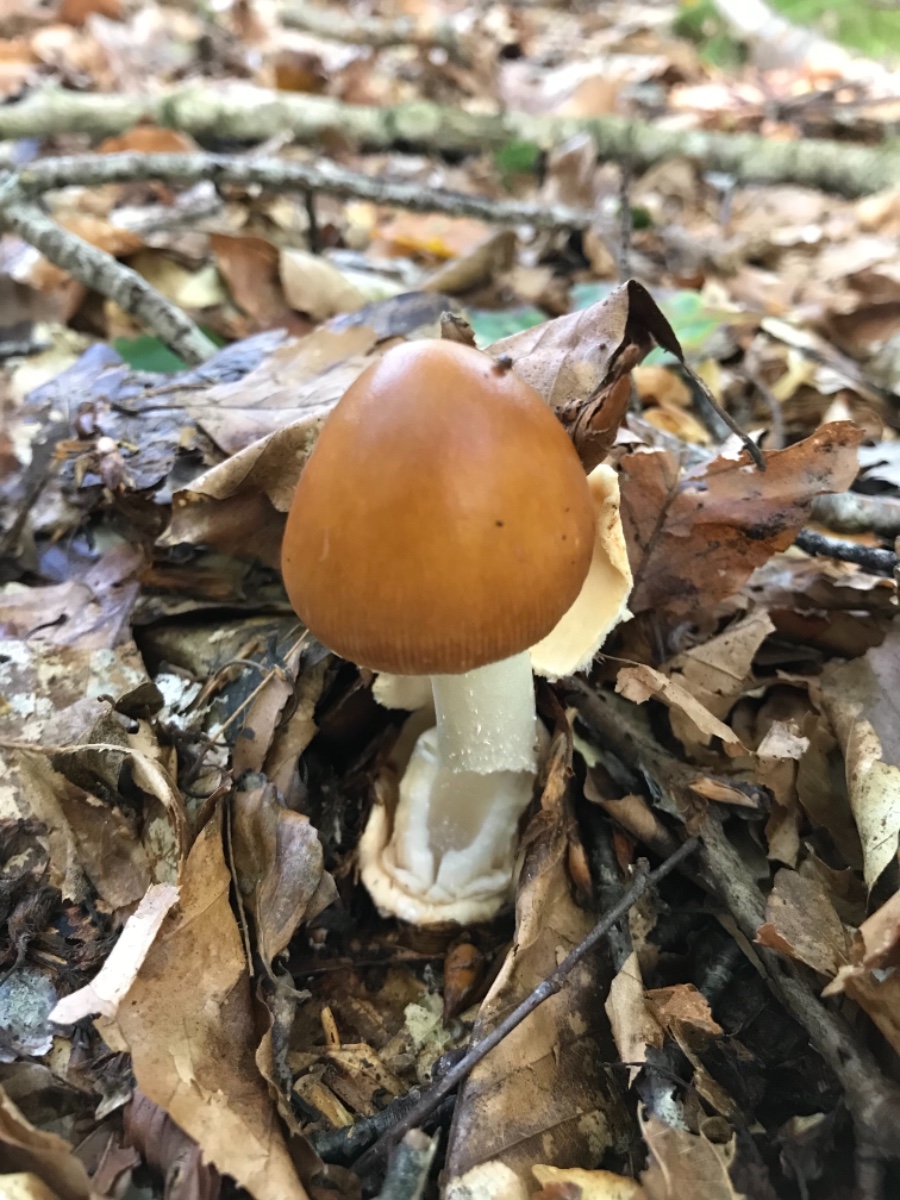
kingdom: Fungi
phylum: Basidiomycota
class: Agaricomycetes
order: Agaricales
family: Amanitaceae
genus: Amanita
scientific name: Amanita fulva
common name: brun kam-fluesvamp
